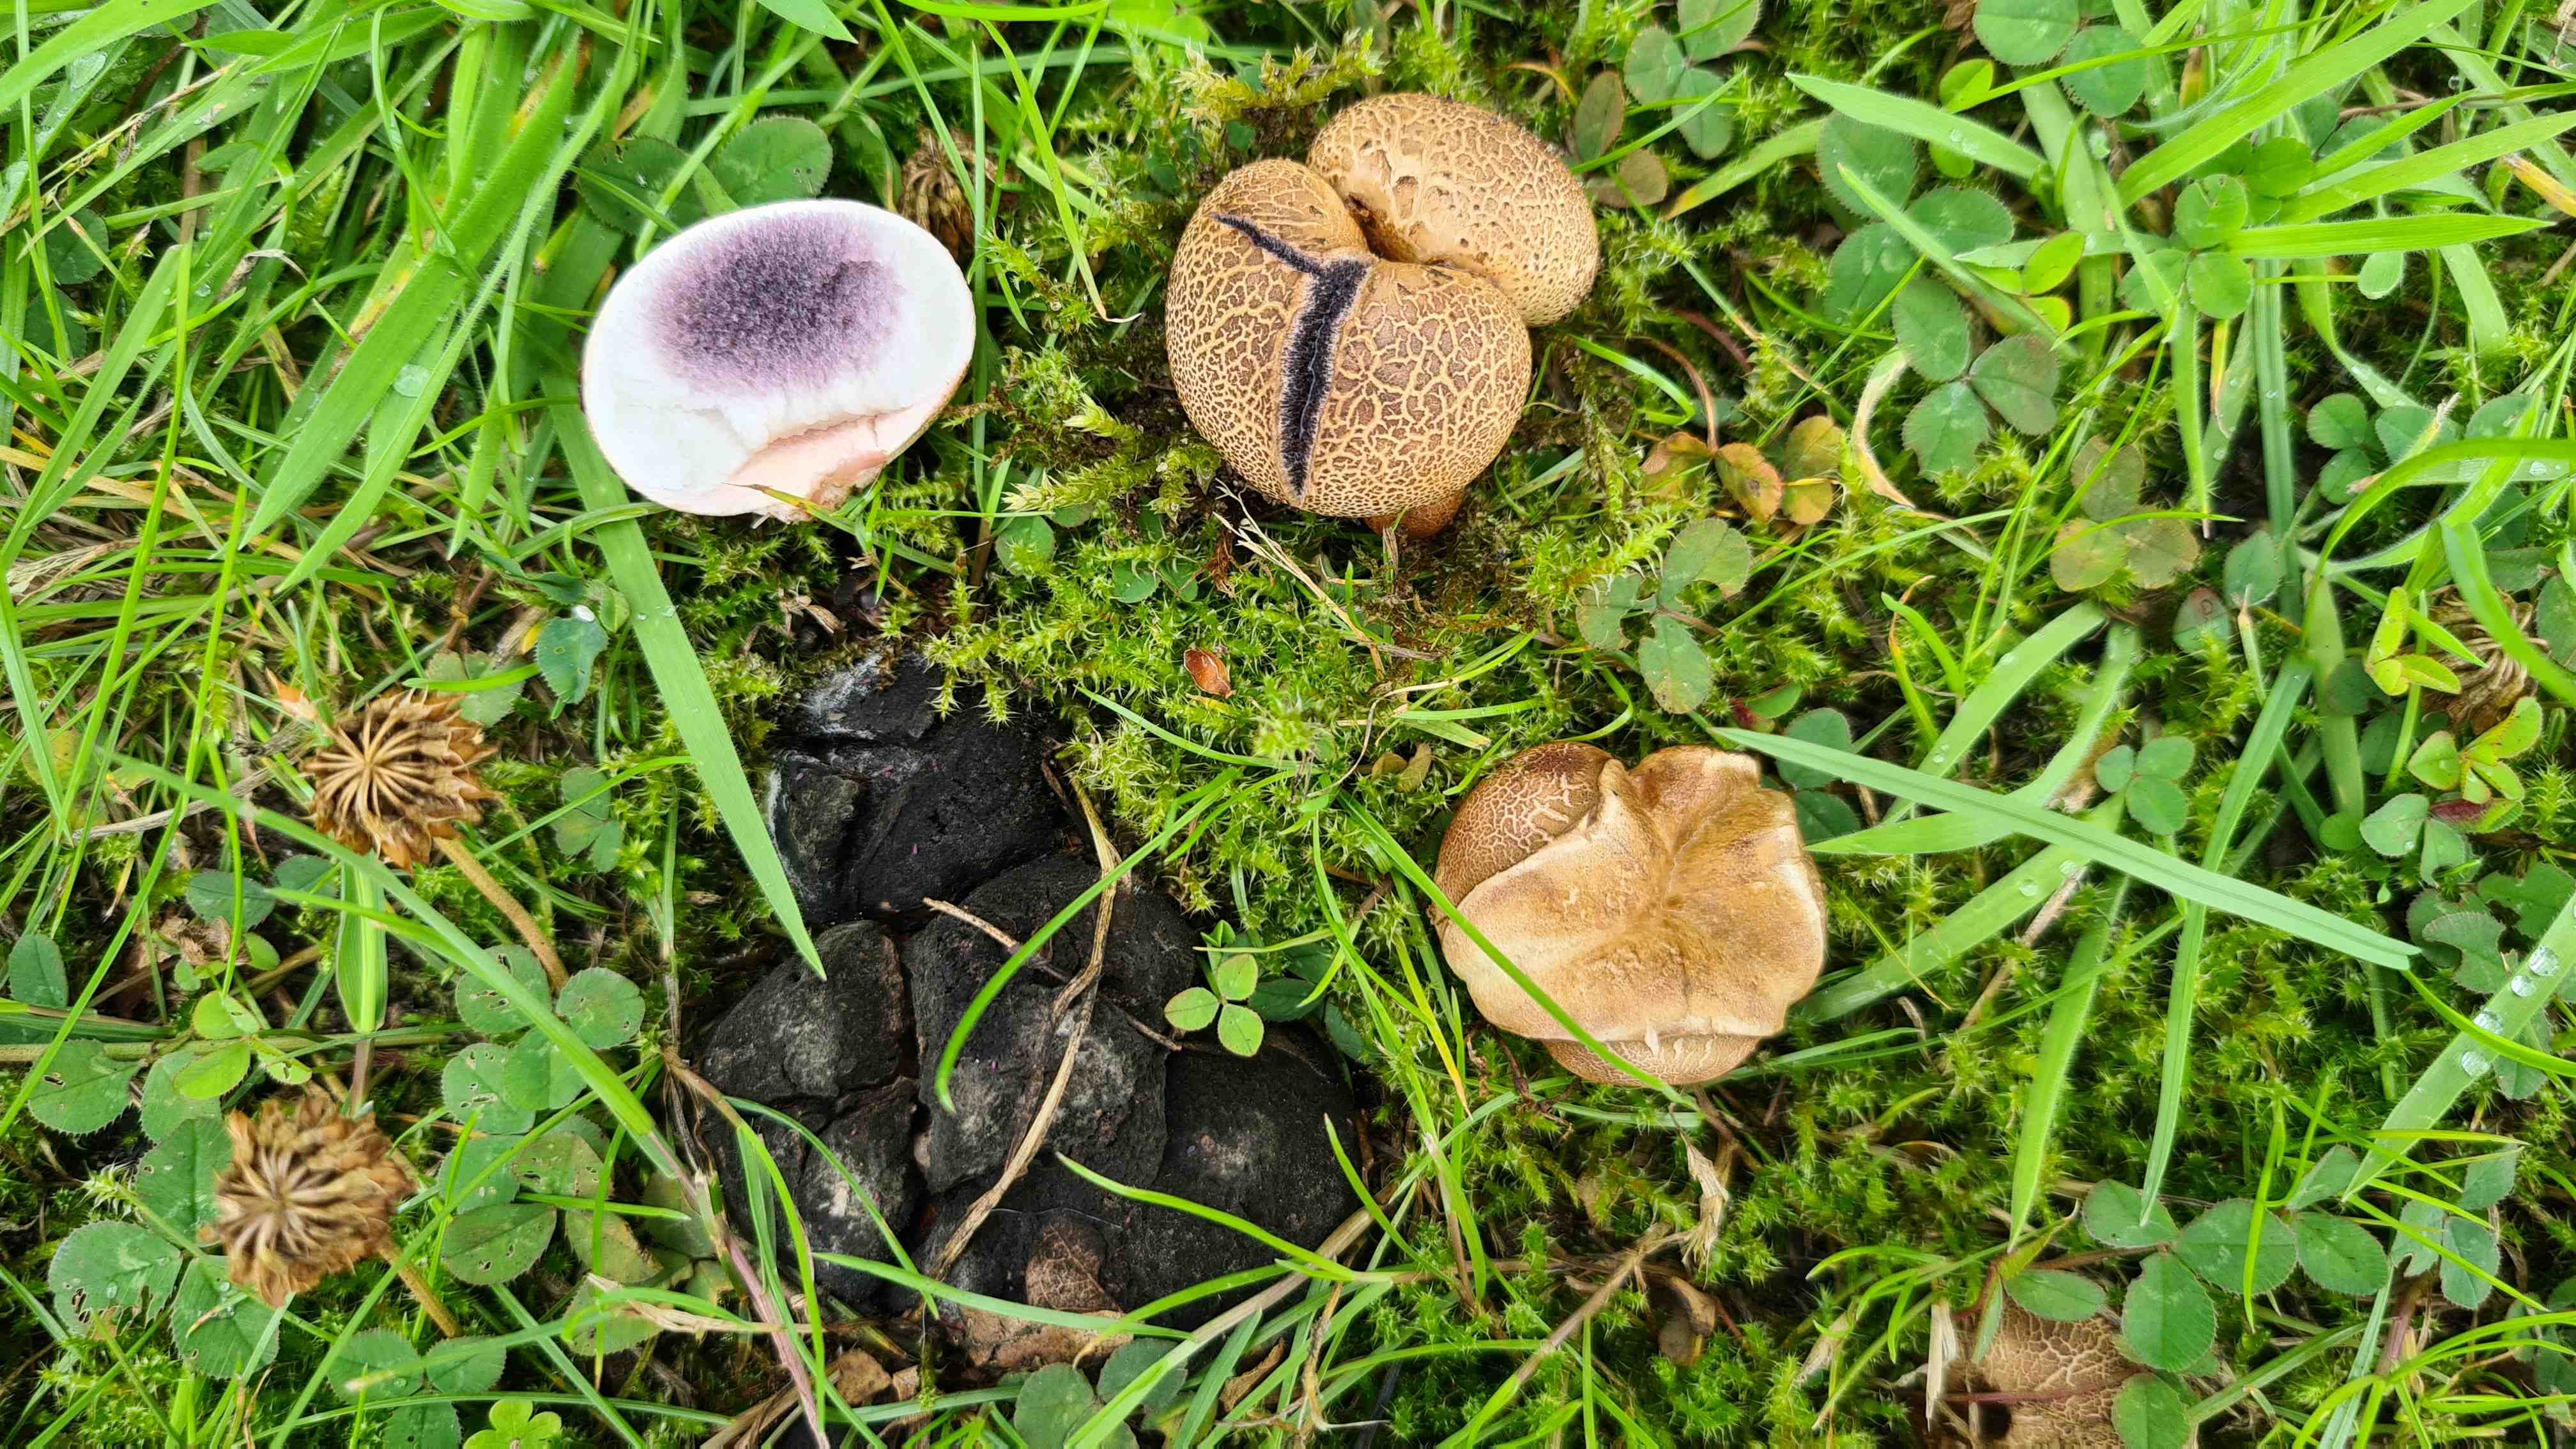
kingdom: Fungi
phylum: Basidiomycota
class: Agaricomycetes
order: Boletales
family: Sclerodermataceae
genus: Scleroderma
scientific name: Scleroderma areolatum
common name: plettet bruskbold
